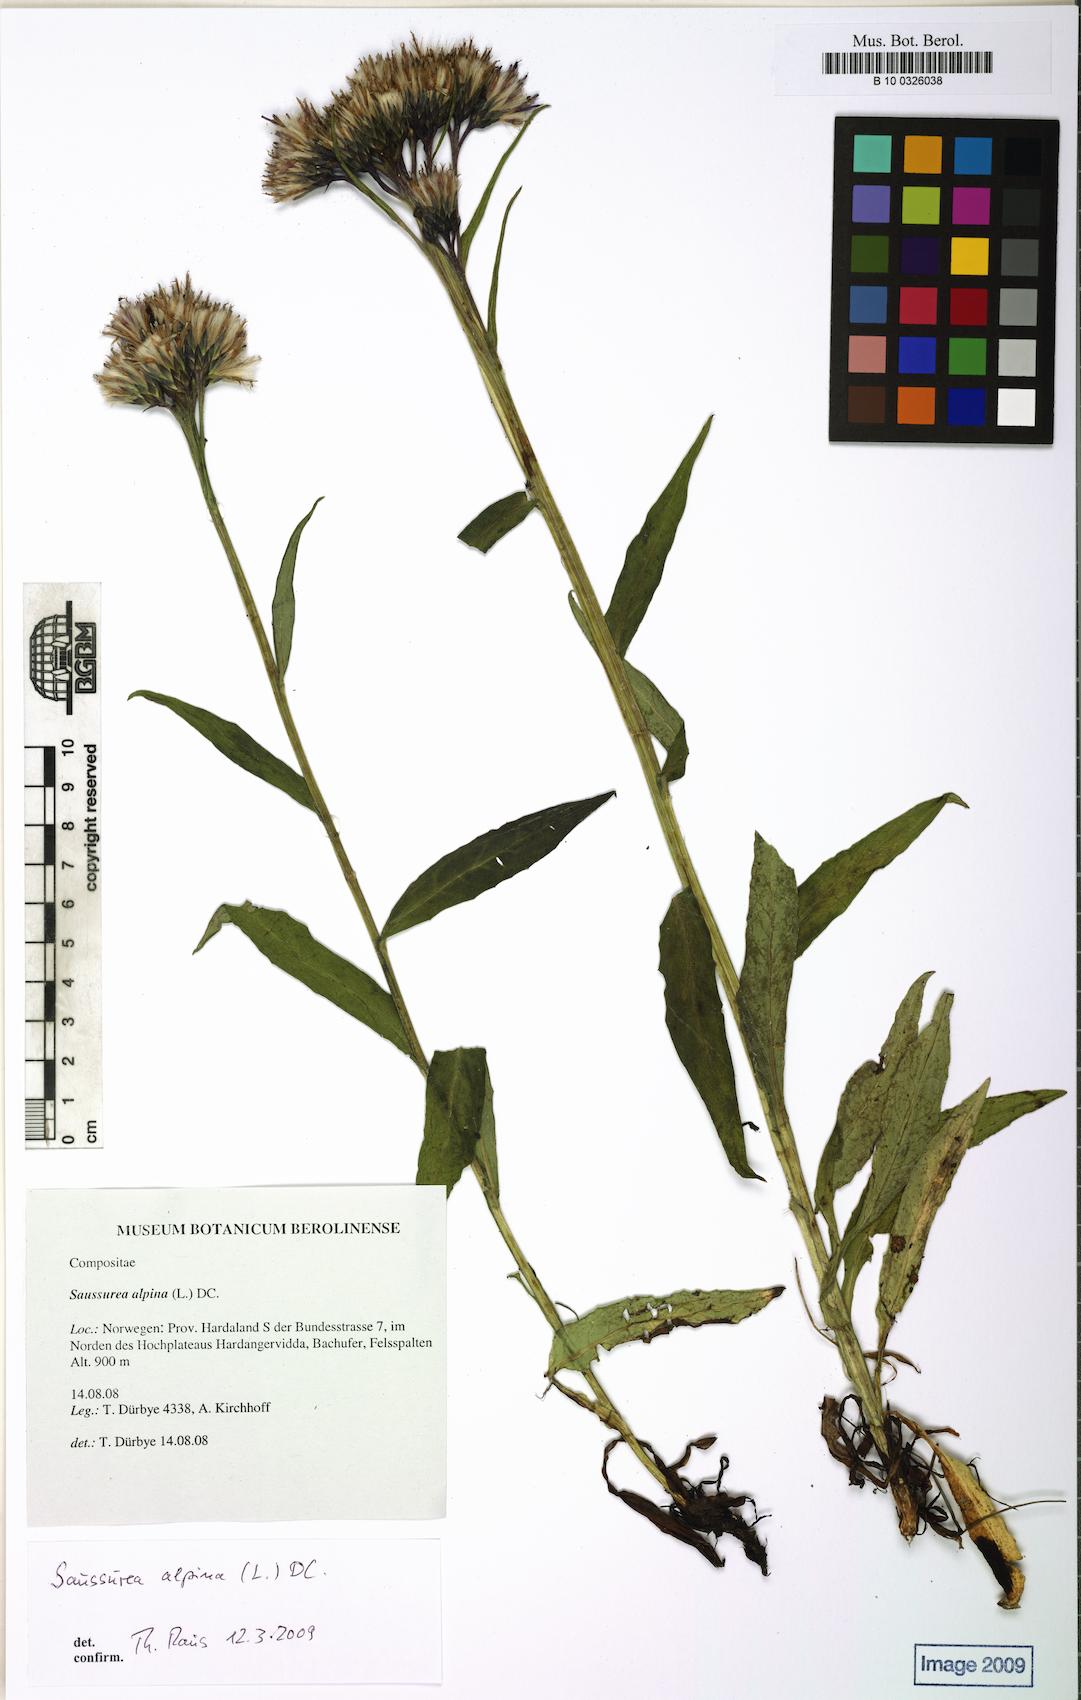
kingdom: Plantae
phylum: Tracheophyta
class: Magnoliopsida
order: Asterales
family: Asteraceae
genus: Saussurea
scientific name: Saussurea alpina
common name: Alpine saw-wort
